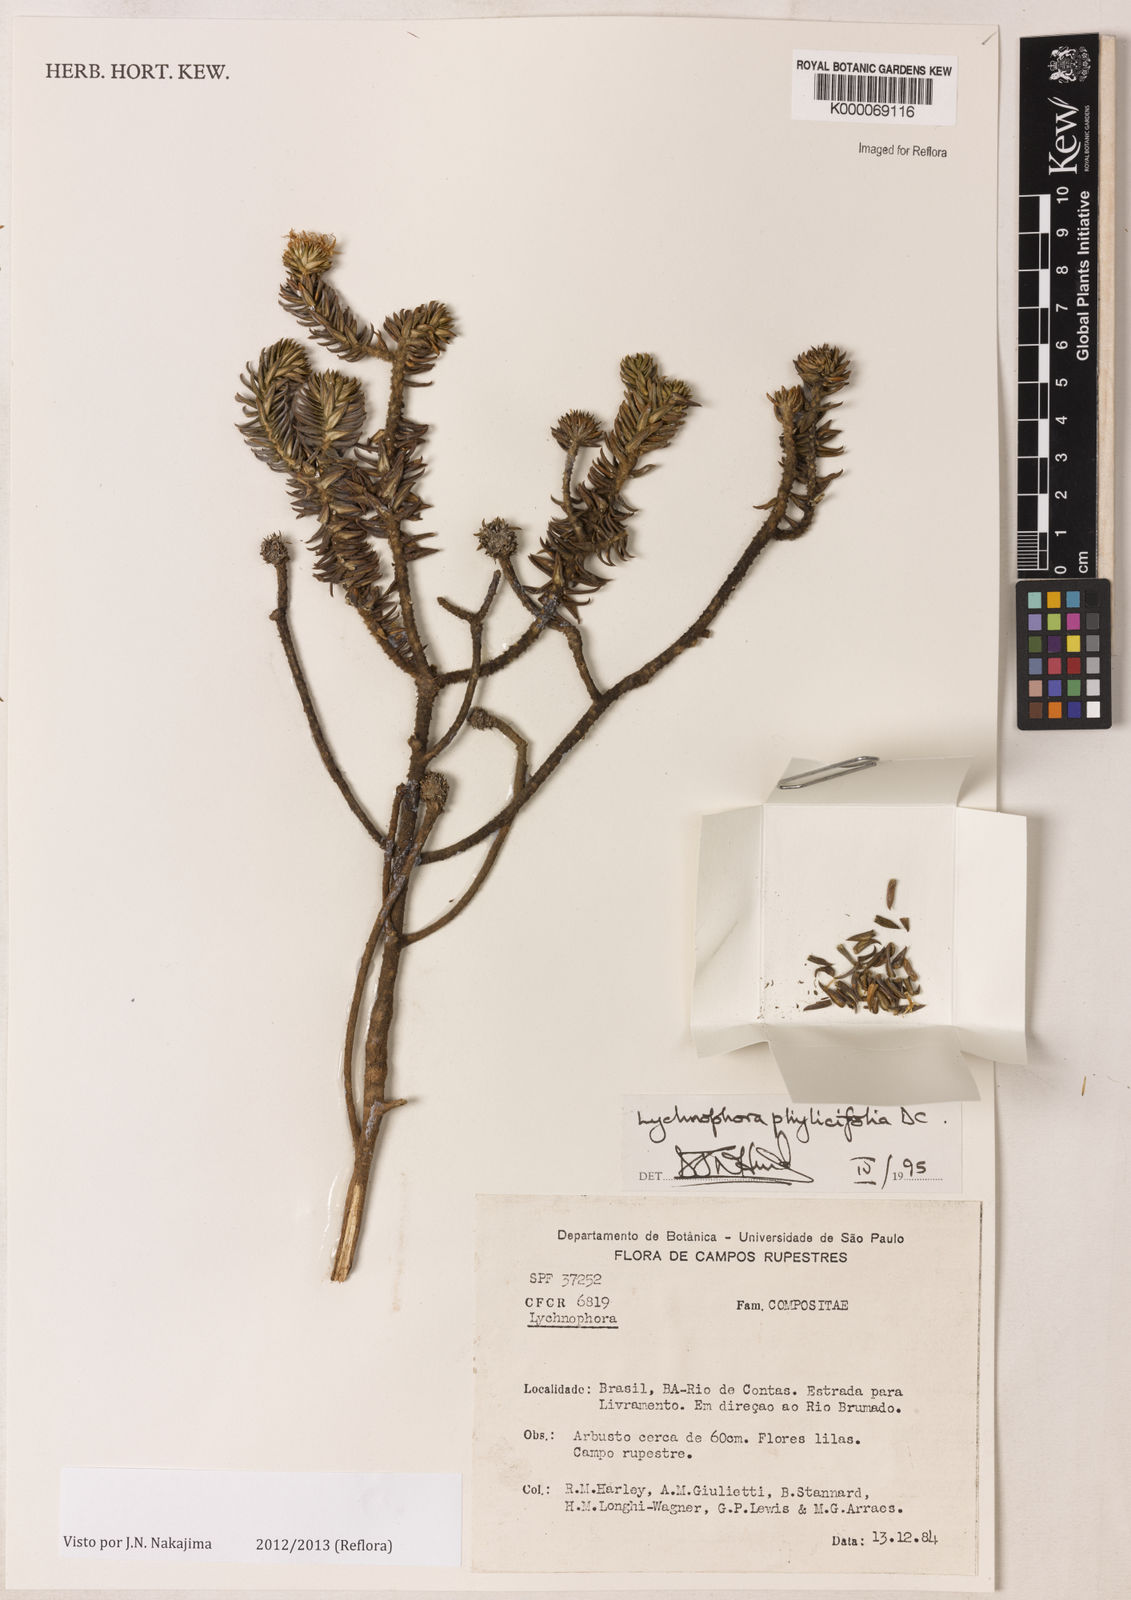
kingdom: Plantae
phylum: Tracheophyta
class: Magnoliopsida
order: Asterales
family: Asteraceae
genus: Lychnophora
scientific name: Lychnophora phylicifolia
